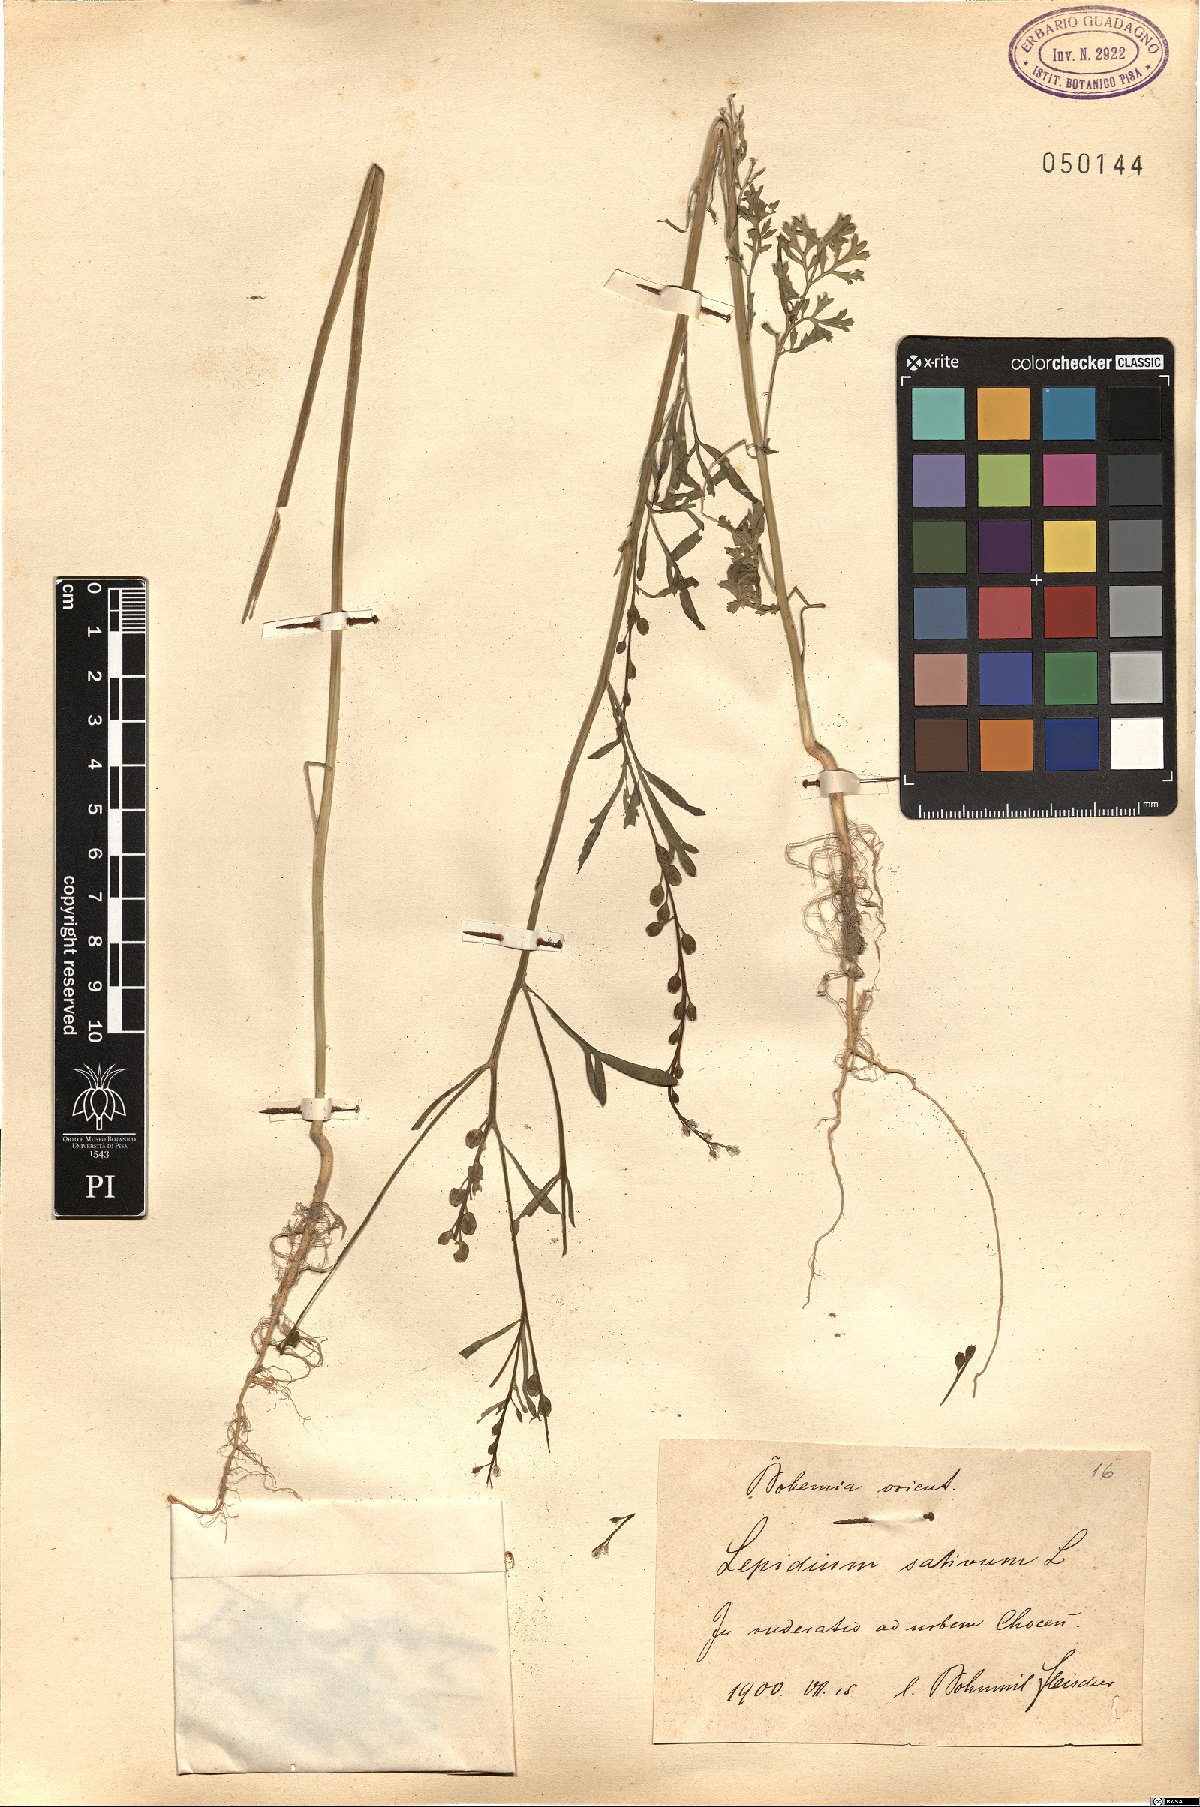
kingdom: Plantae
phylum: Tracheophyta
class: Magnoliopsida
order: Brassicales
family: Brassicaceae
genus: Lepidium
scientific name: Lepidium sativum
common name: Garden cress
